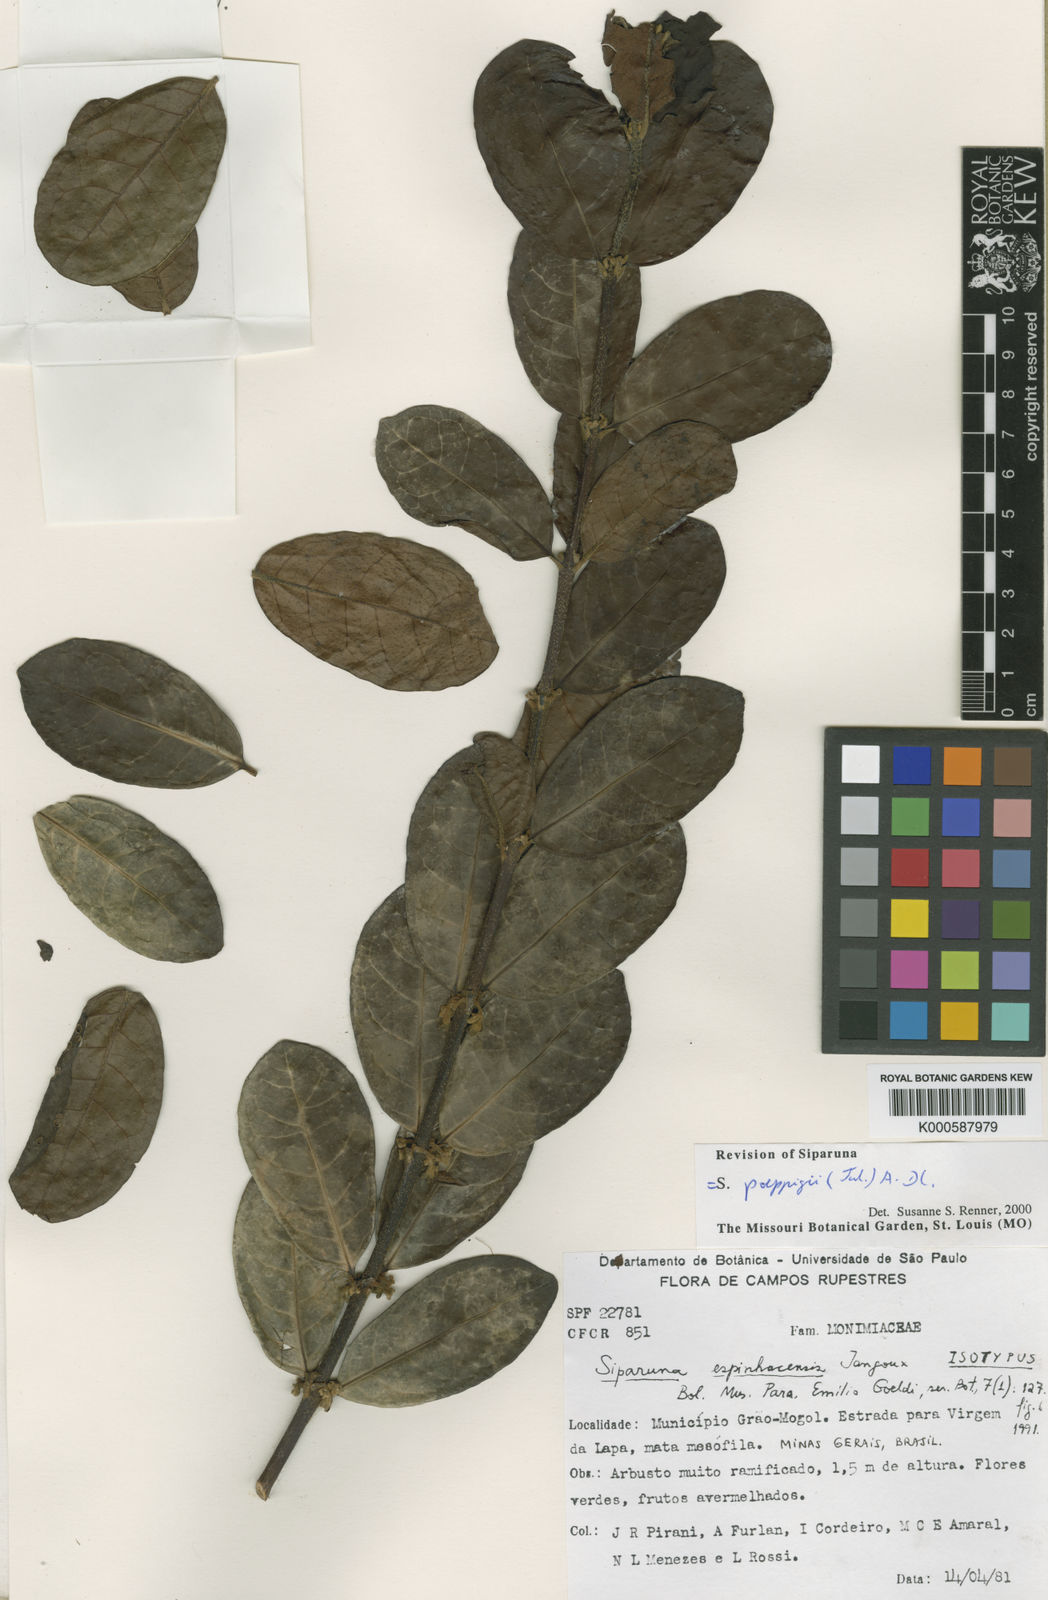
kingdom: Plantae
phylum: Tracheophyta
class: Magnoliopsida
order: Laurales
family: Siparunaceae
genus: Siparuna
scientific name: Siparuna poeppigii
